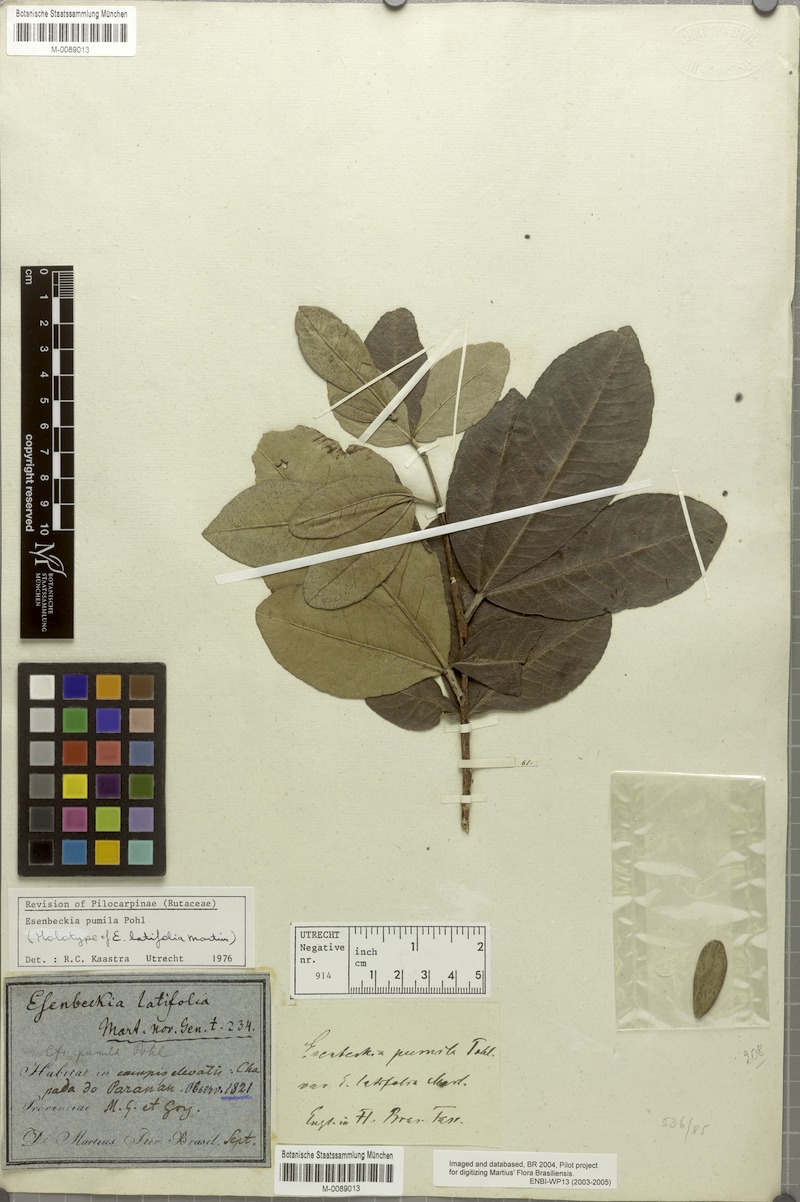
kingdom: Plantae
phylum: Tracheophyta
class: Magnoliopsida
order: Sapindales
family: Rutaceae
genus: Esenbeckia
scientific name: Esenbeckia pumila
